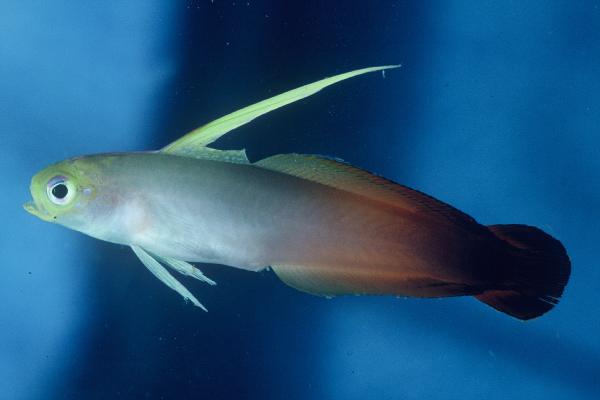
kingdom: Animalia
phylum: Chordata
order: Perciformes
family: Microdesmidae
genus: Nemateleotris
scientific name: Nemateleotris magnifica
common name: Fire goby
